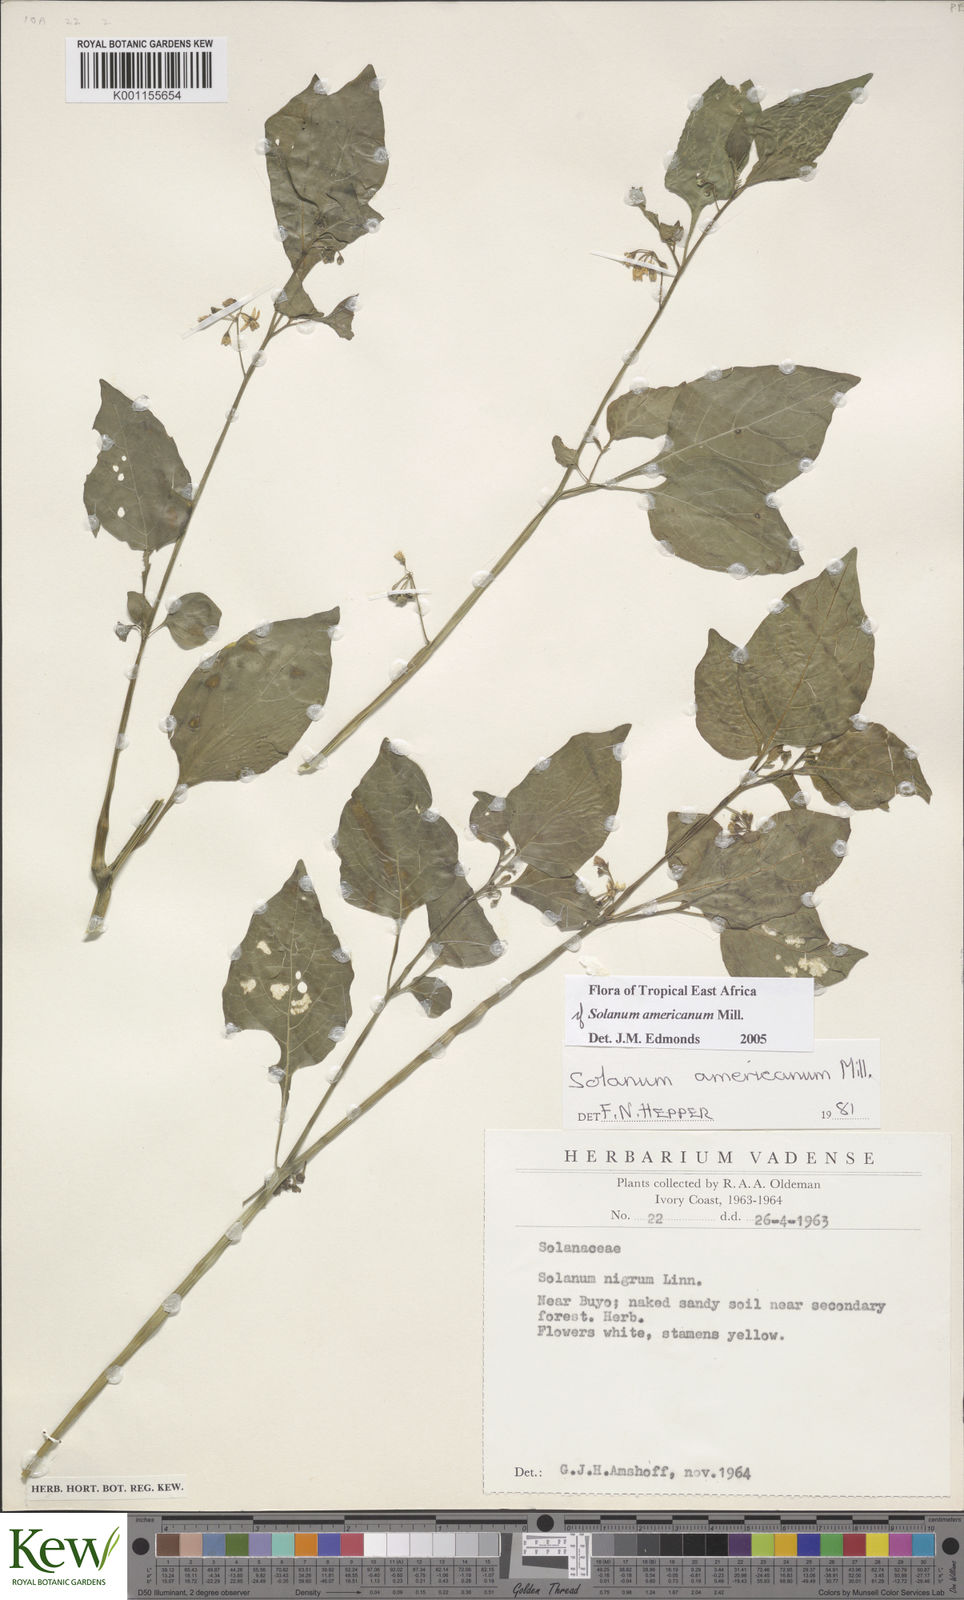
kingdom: Plantae
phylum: Tracheophyta
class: Magnoliopsida
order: Solanales
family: Solanaceae
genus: Solanum
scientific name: Solanum scabrum
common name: Garden-huckleberry
